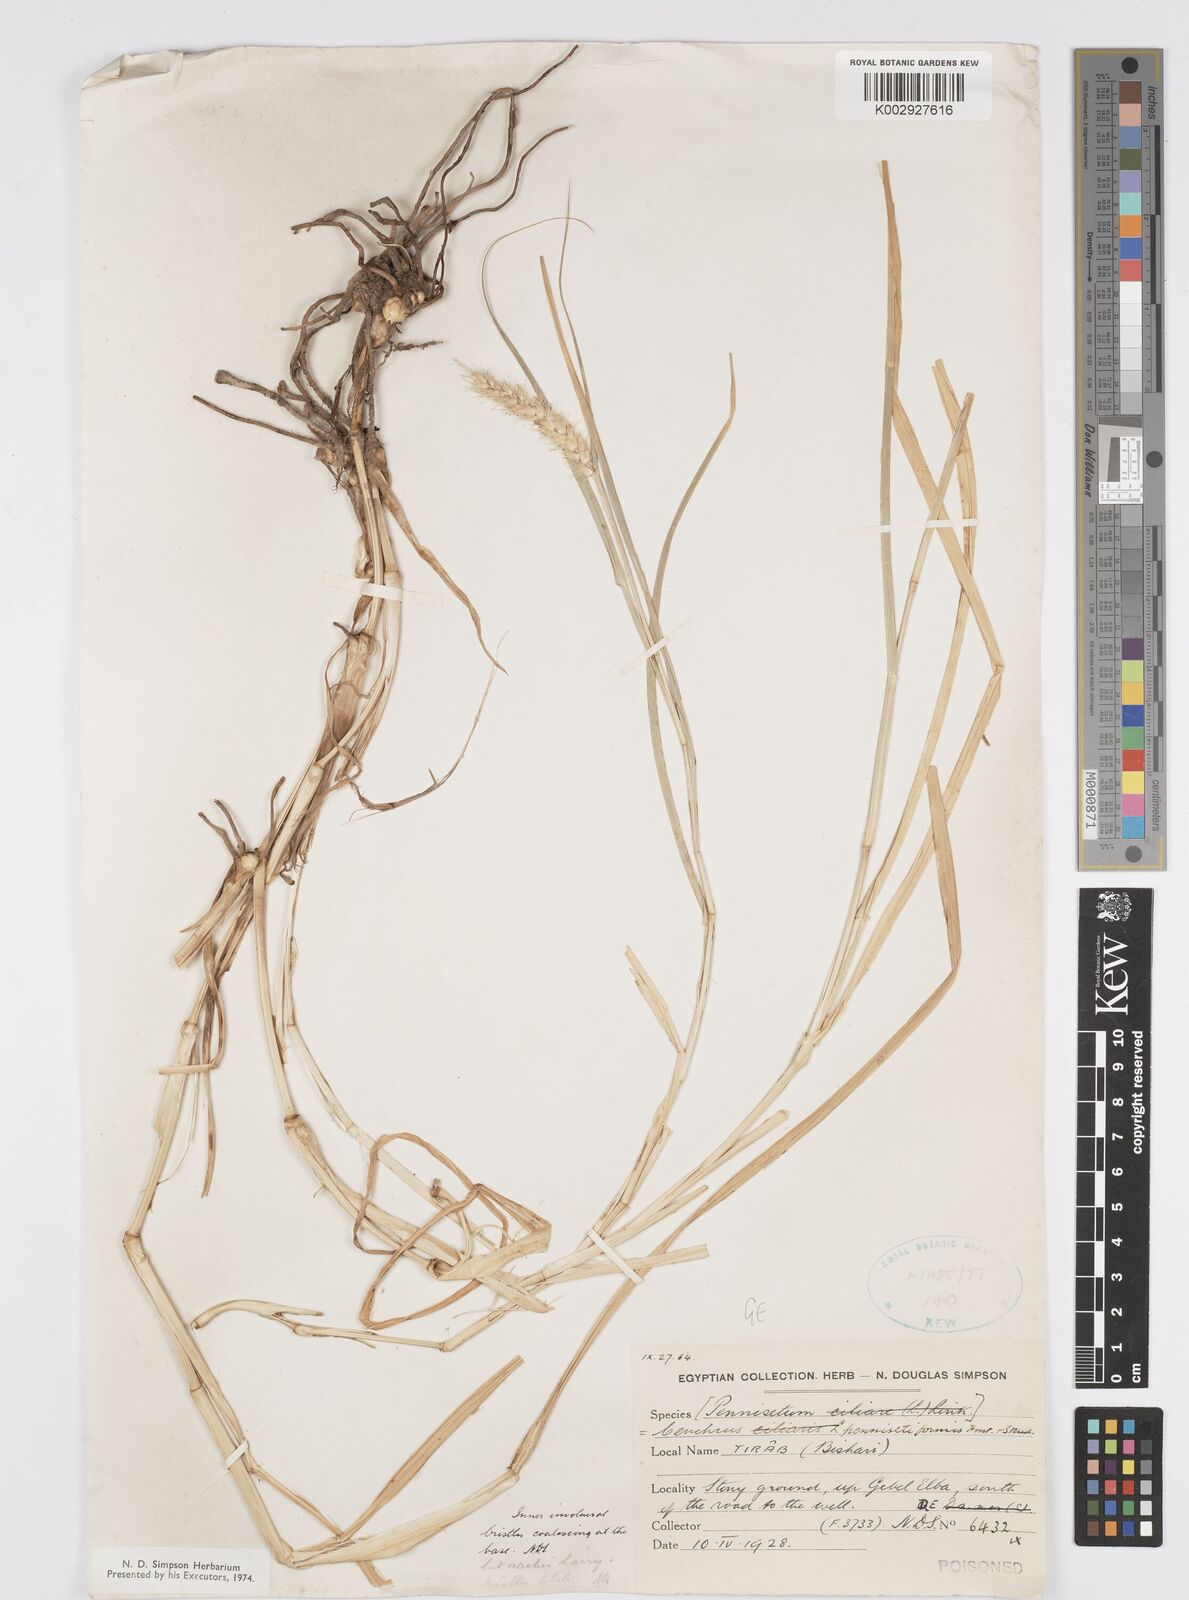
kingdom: Plantae
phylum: Tracheophyta
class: Liliopsida
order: Poales
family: Poaceae
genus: Cenchrus
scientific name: Cenchrus pennisetiformis
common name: Cloncurry
